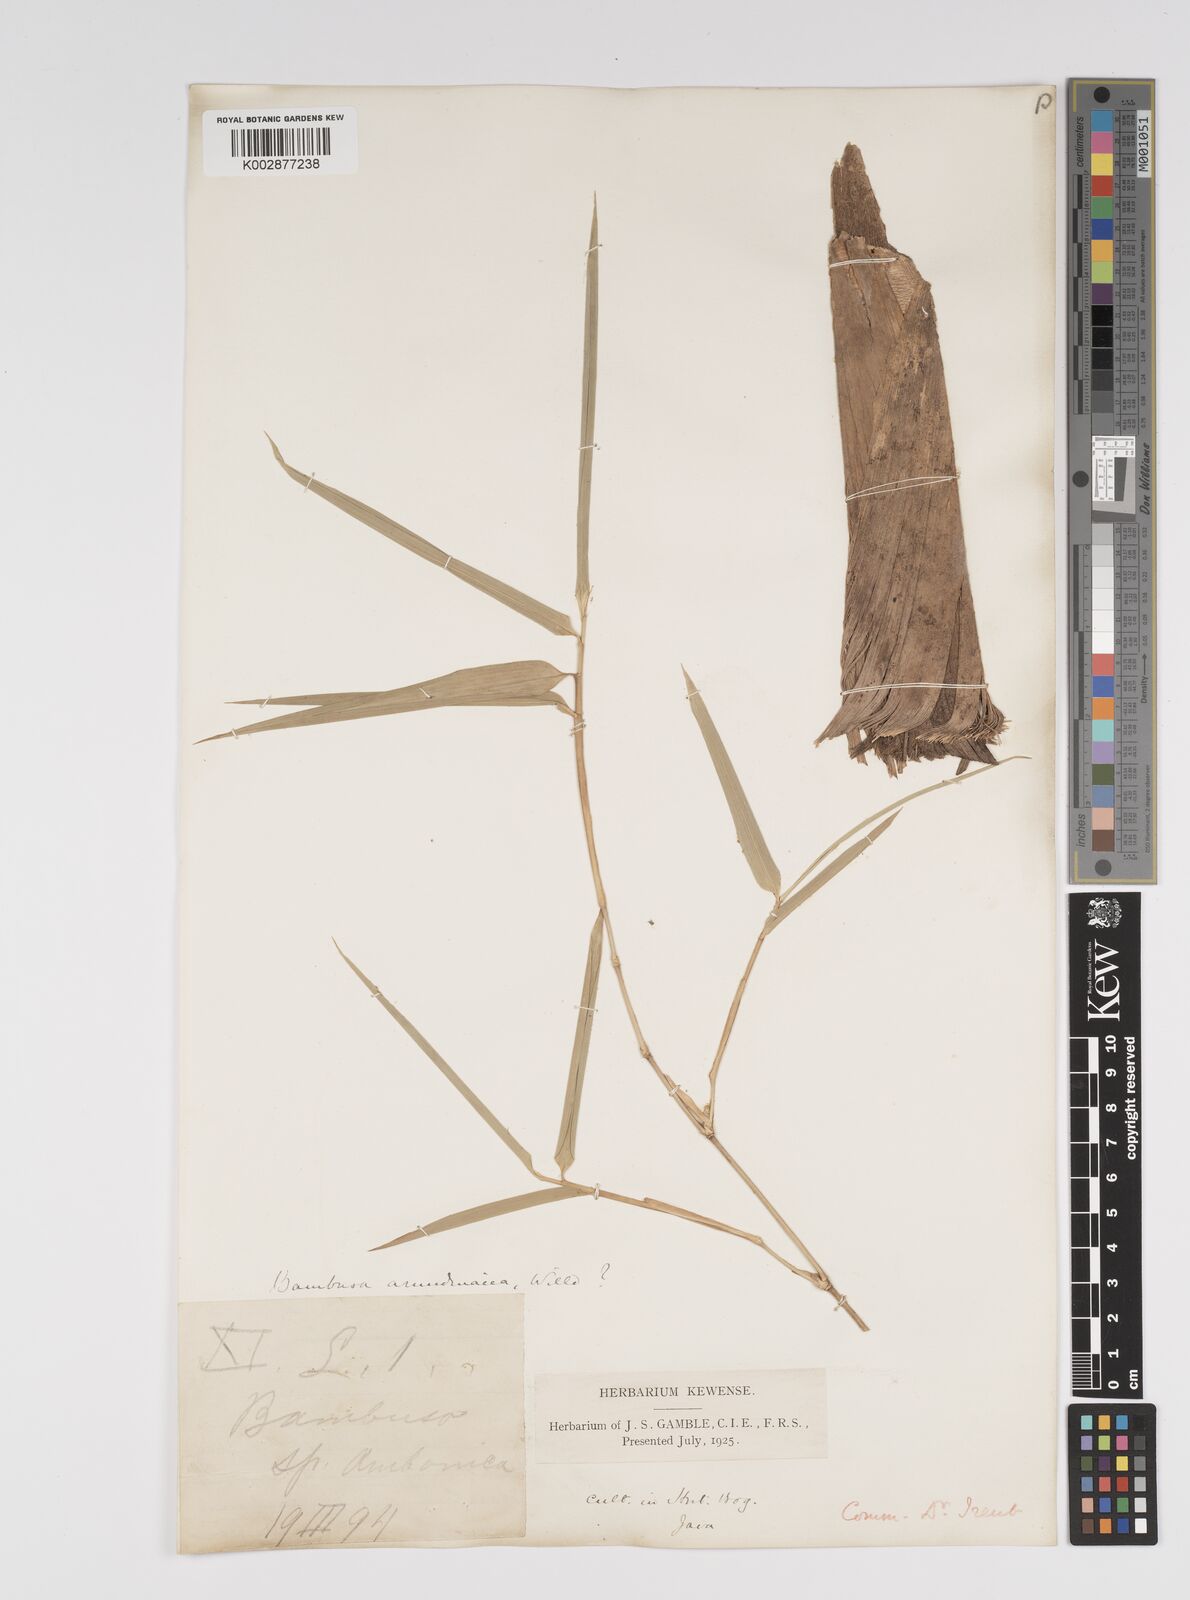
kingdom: Plantae
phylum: Tracheophyta
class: Liliopsida
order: Poales
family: Poaceae
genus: Bambusa
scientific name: Bambusa bambos
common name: Indian thorny bamboo
